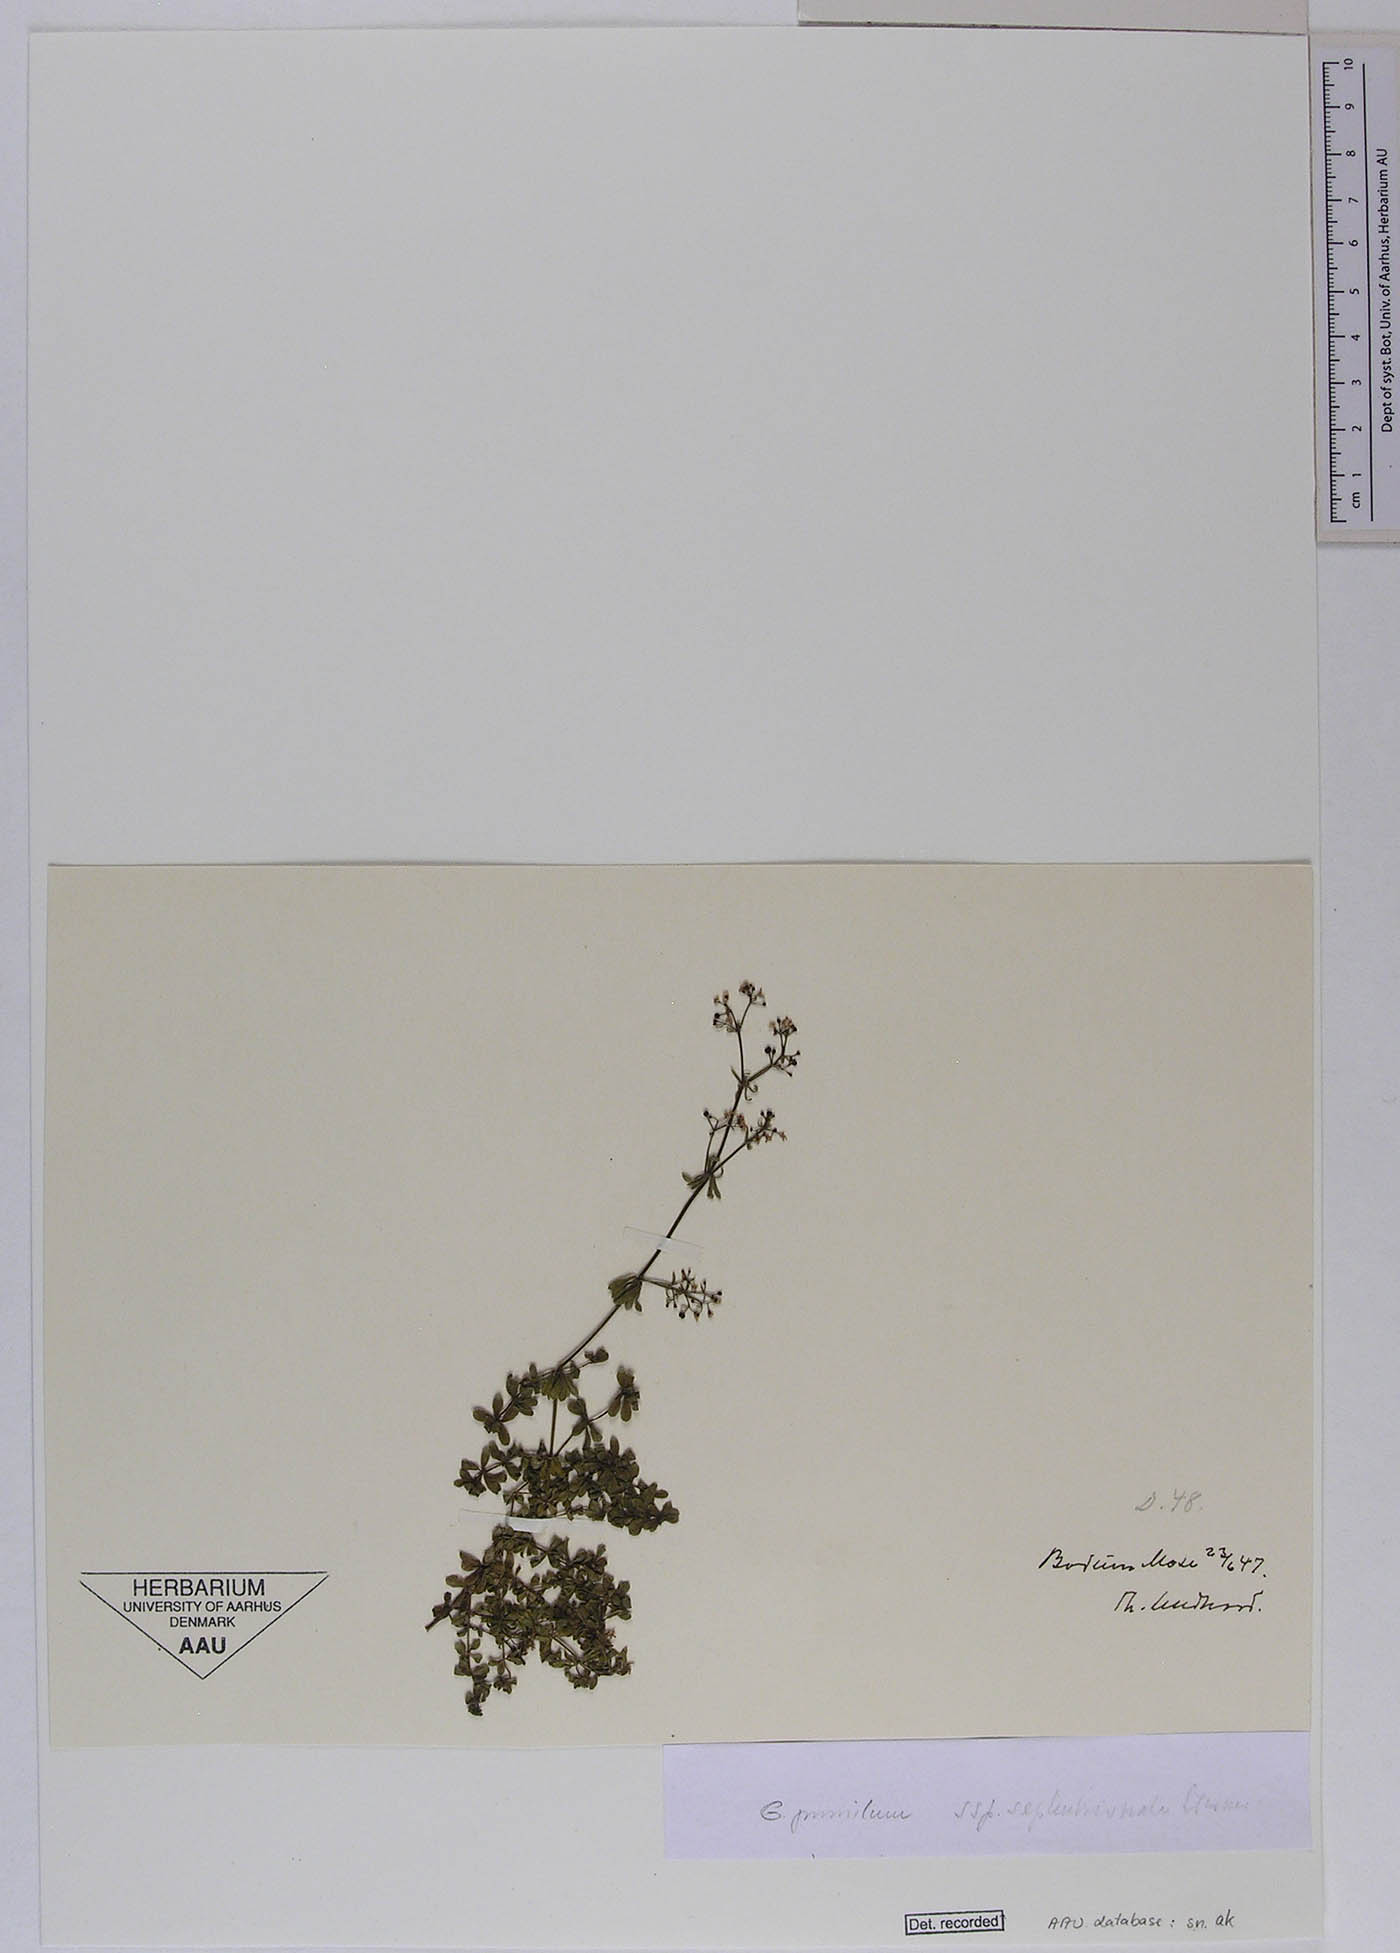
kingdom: Plantae
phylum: Tracheophyta
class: Magnoliopsida
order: Gentianales
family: Rubiaceae
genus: Galium
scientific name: Galium pusillum
